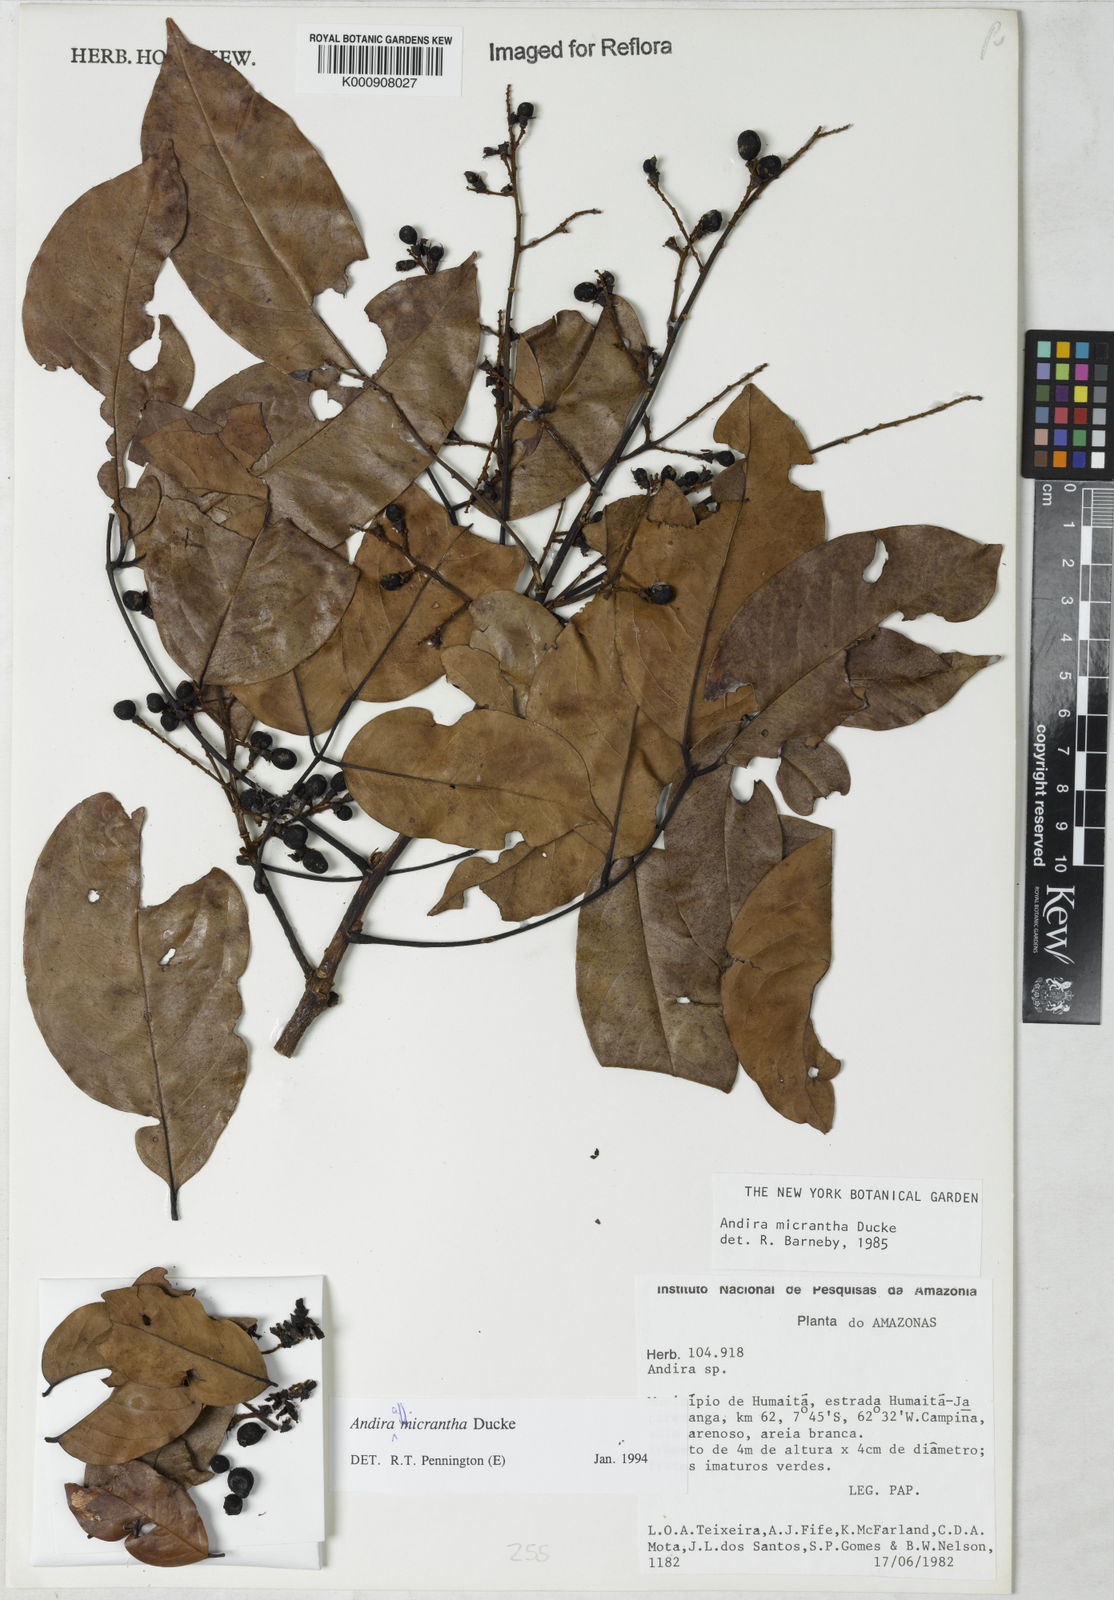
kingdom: Plantae
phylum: Tracheophyta
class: Magnoliopsida
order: Fabales
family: Fabaceae
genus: Andira
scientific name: Andira micrantha
